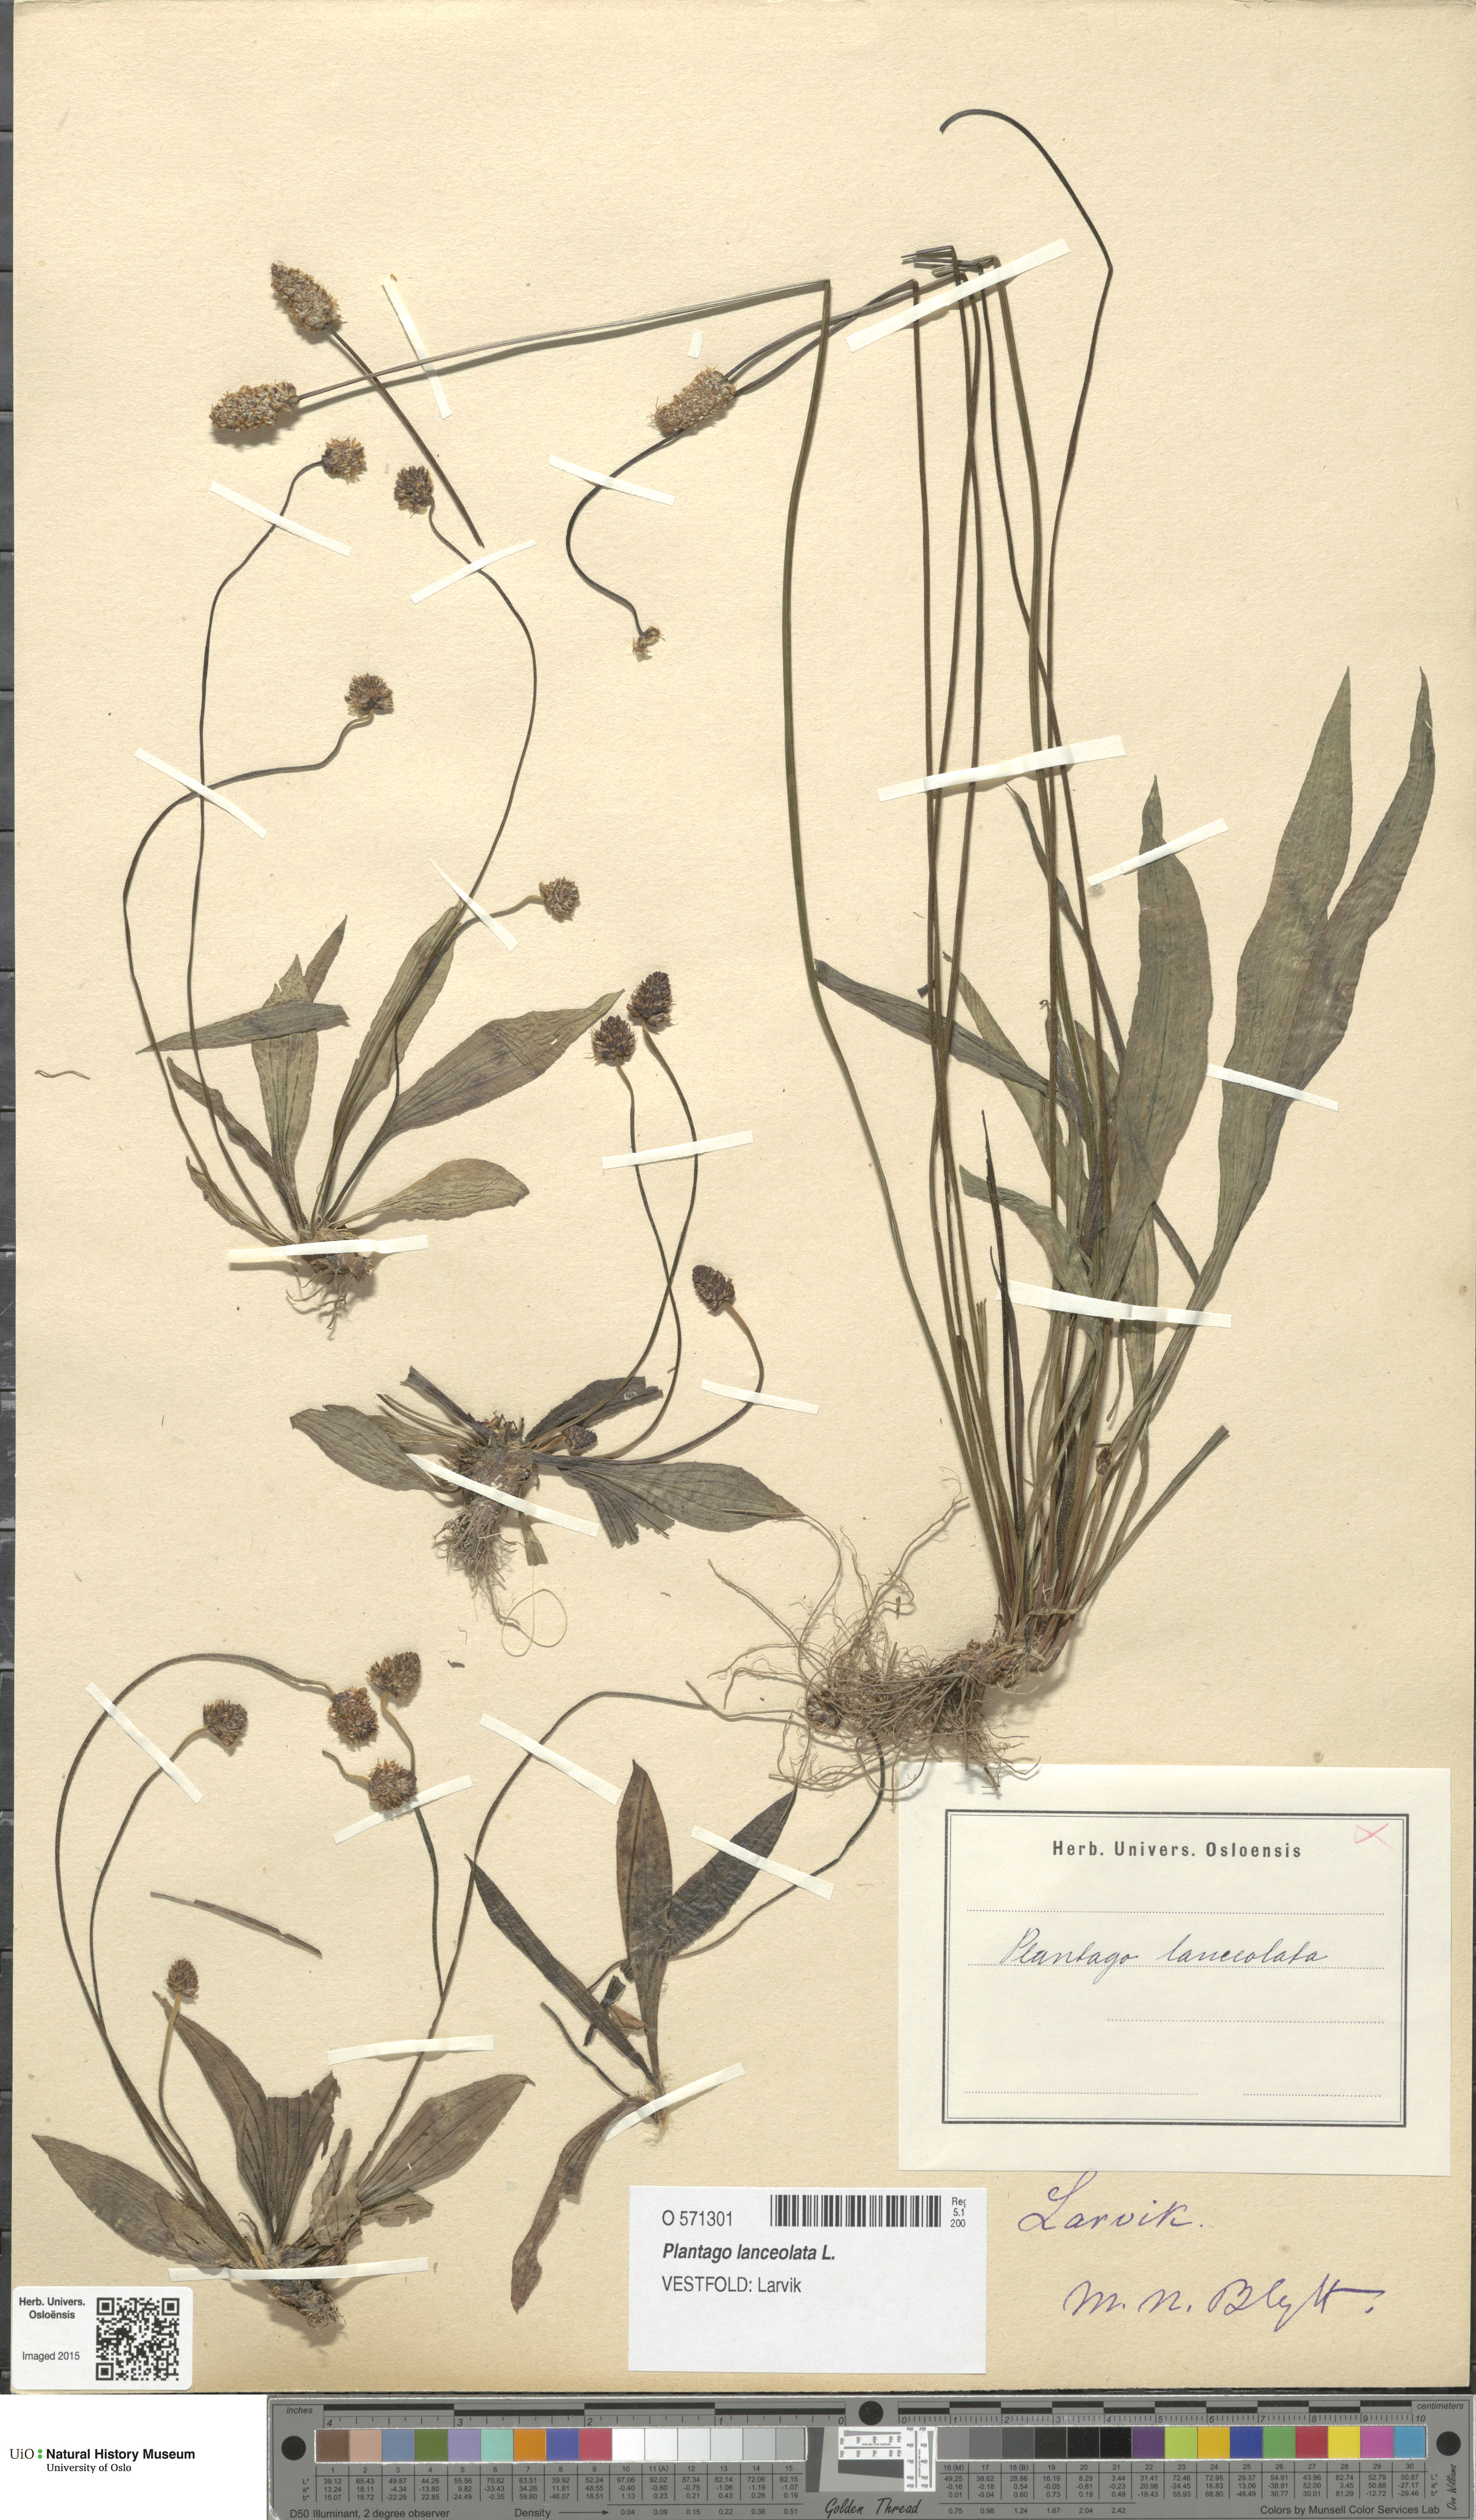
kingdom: Plantae
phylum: Tracheophyta
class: Magnoliopsida
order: Lamiales
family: Plantaginaceae
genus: Plantago
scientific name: Plantago lanceolata
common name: Ribwort plantain
